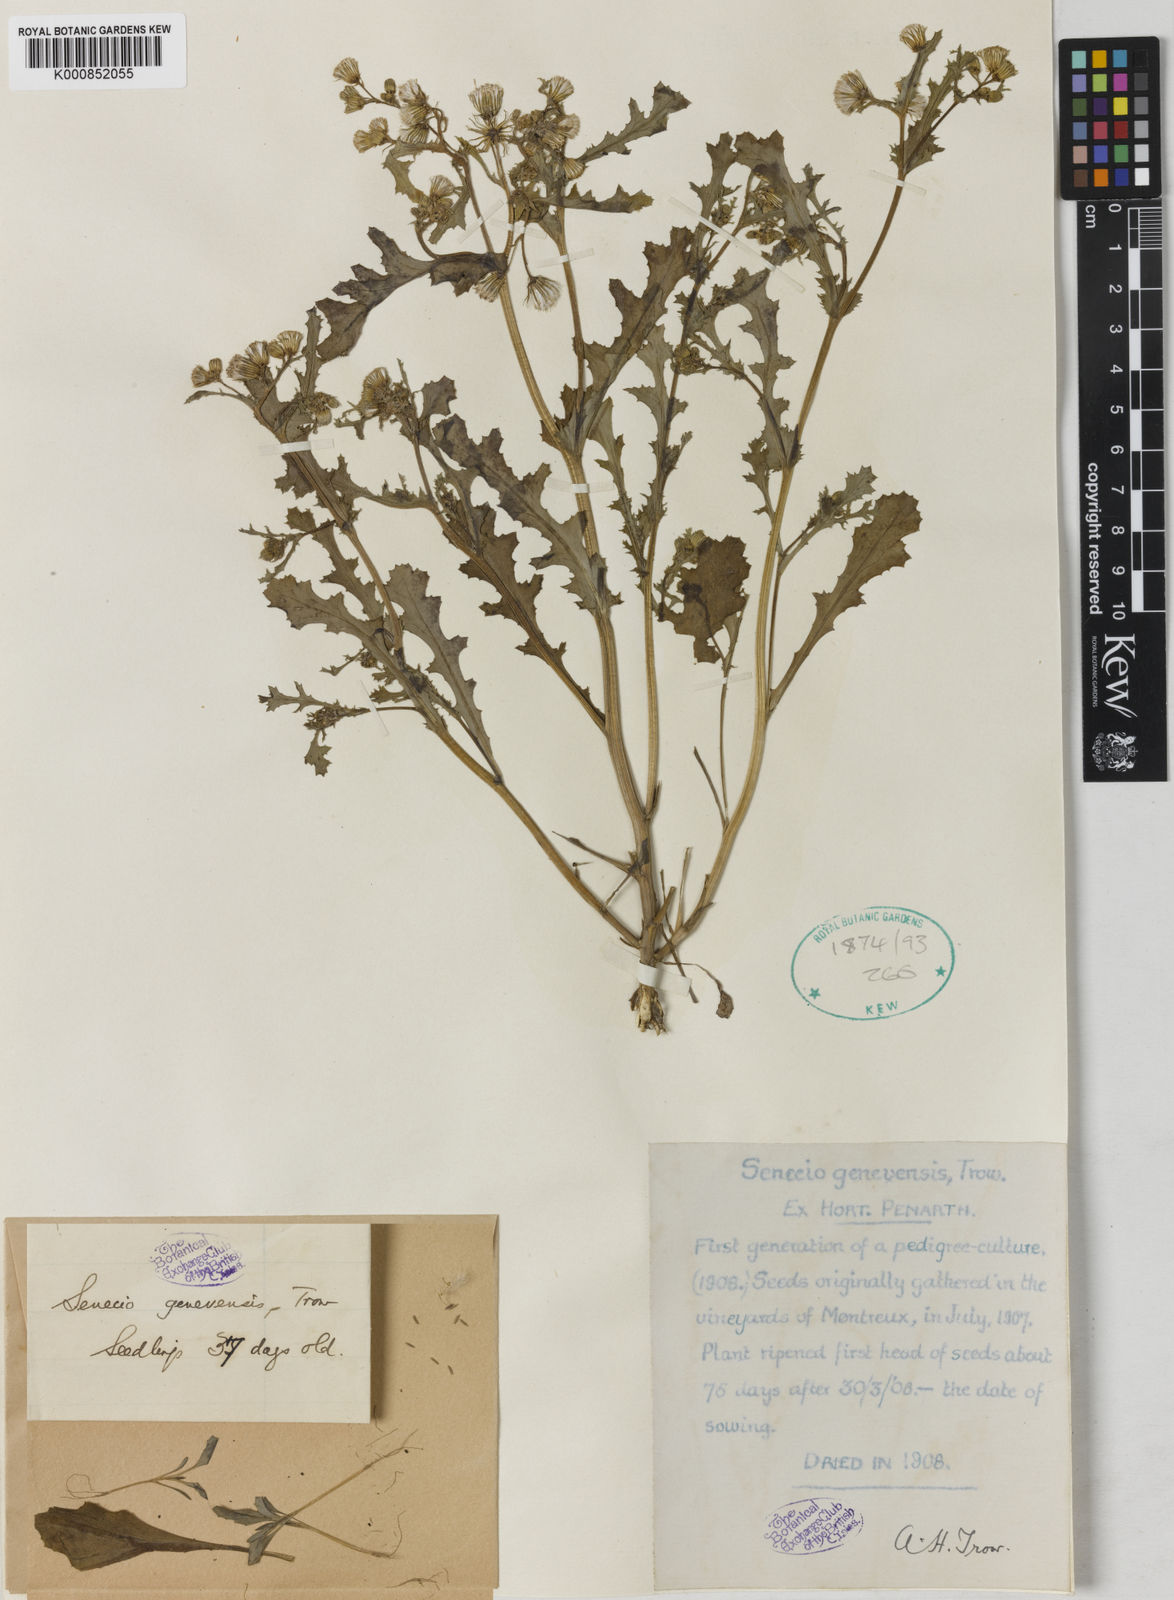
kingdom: Plantae
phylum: Tracheophyta
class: Magnoliopsida
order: Asterales
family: Asteraceae
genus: Senecio
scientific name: Senecio vulgaris
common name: Old-man-in-the-spring
